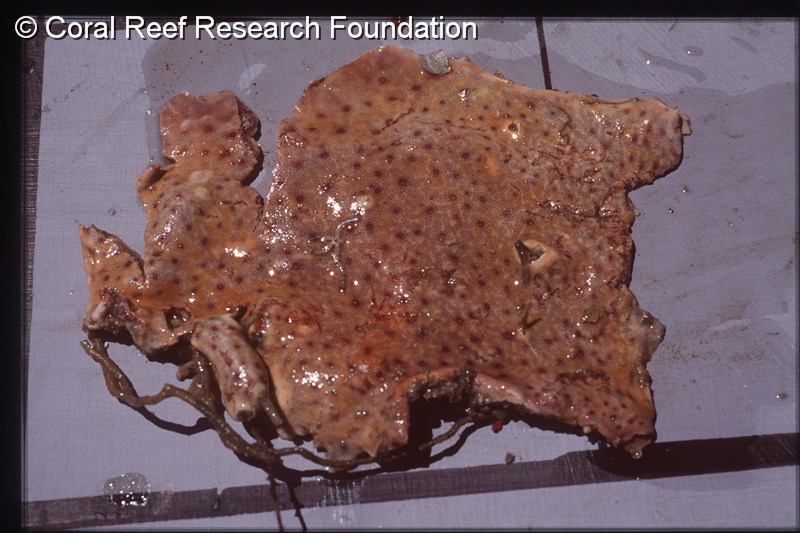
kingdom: Animalia
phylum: Chordata
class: Ascidiacea
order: Aplousobranchia
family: Didemnidae
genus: Polysyncraton
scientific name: Polysyncraton milleporae
